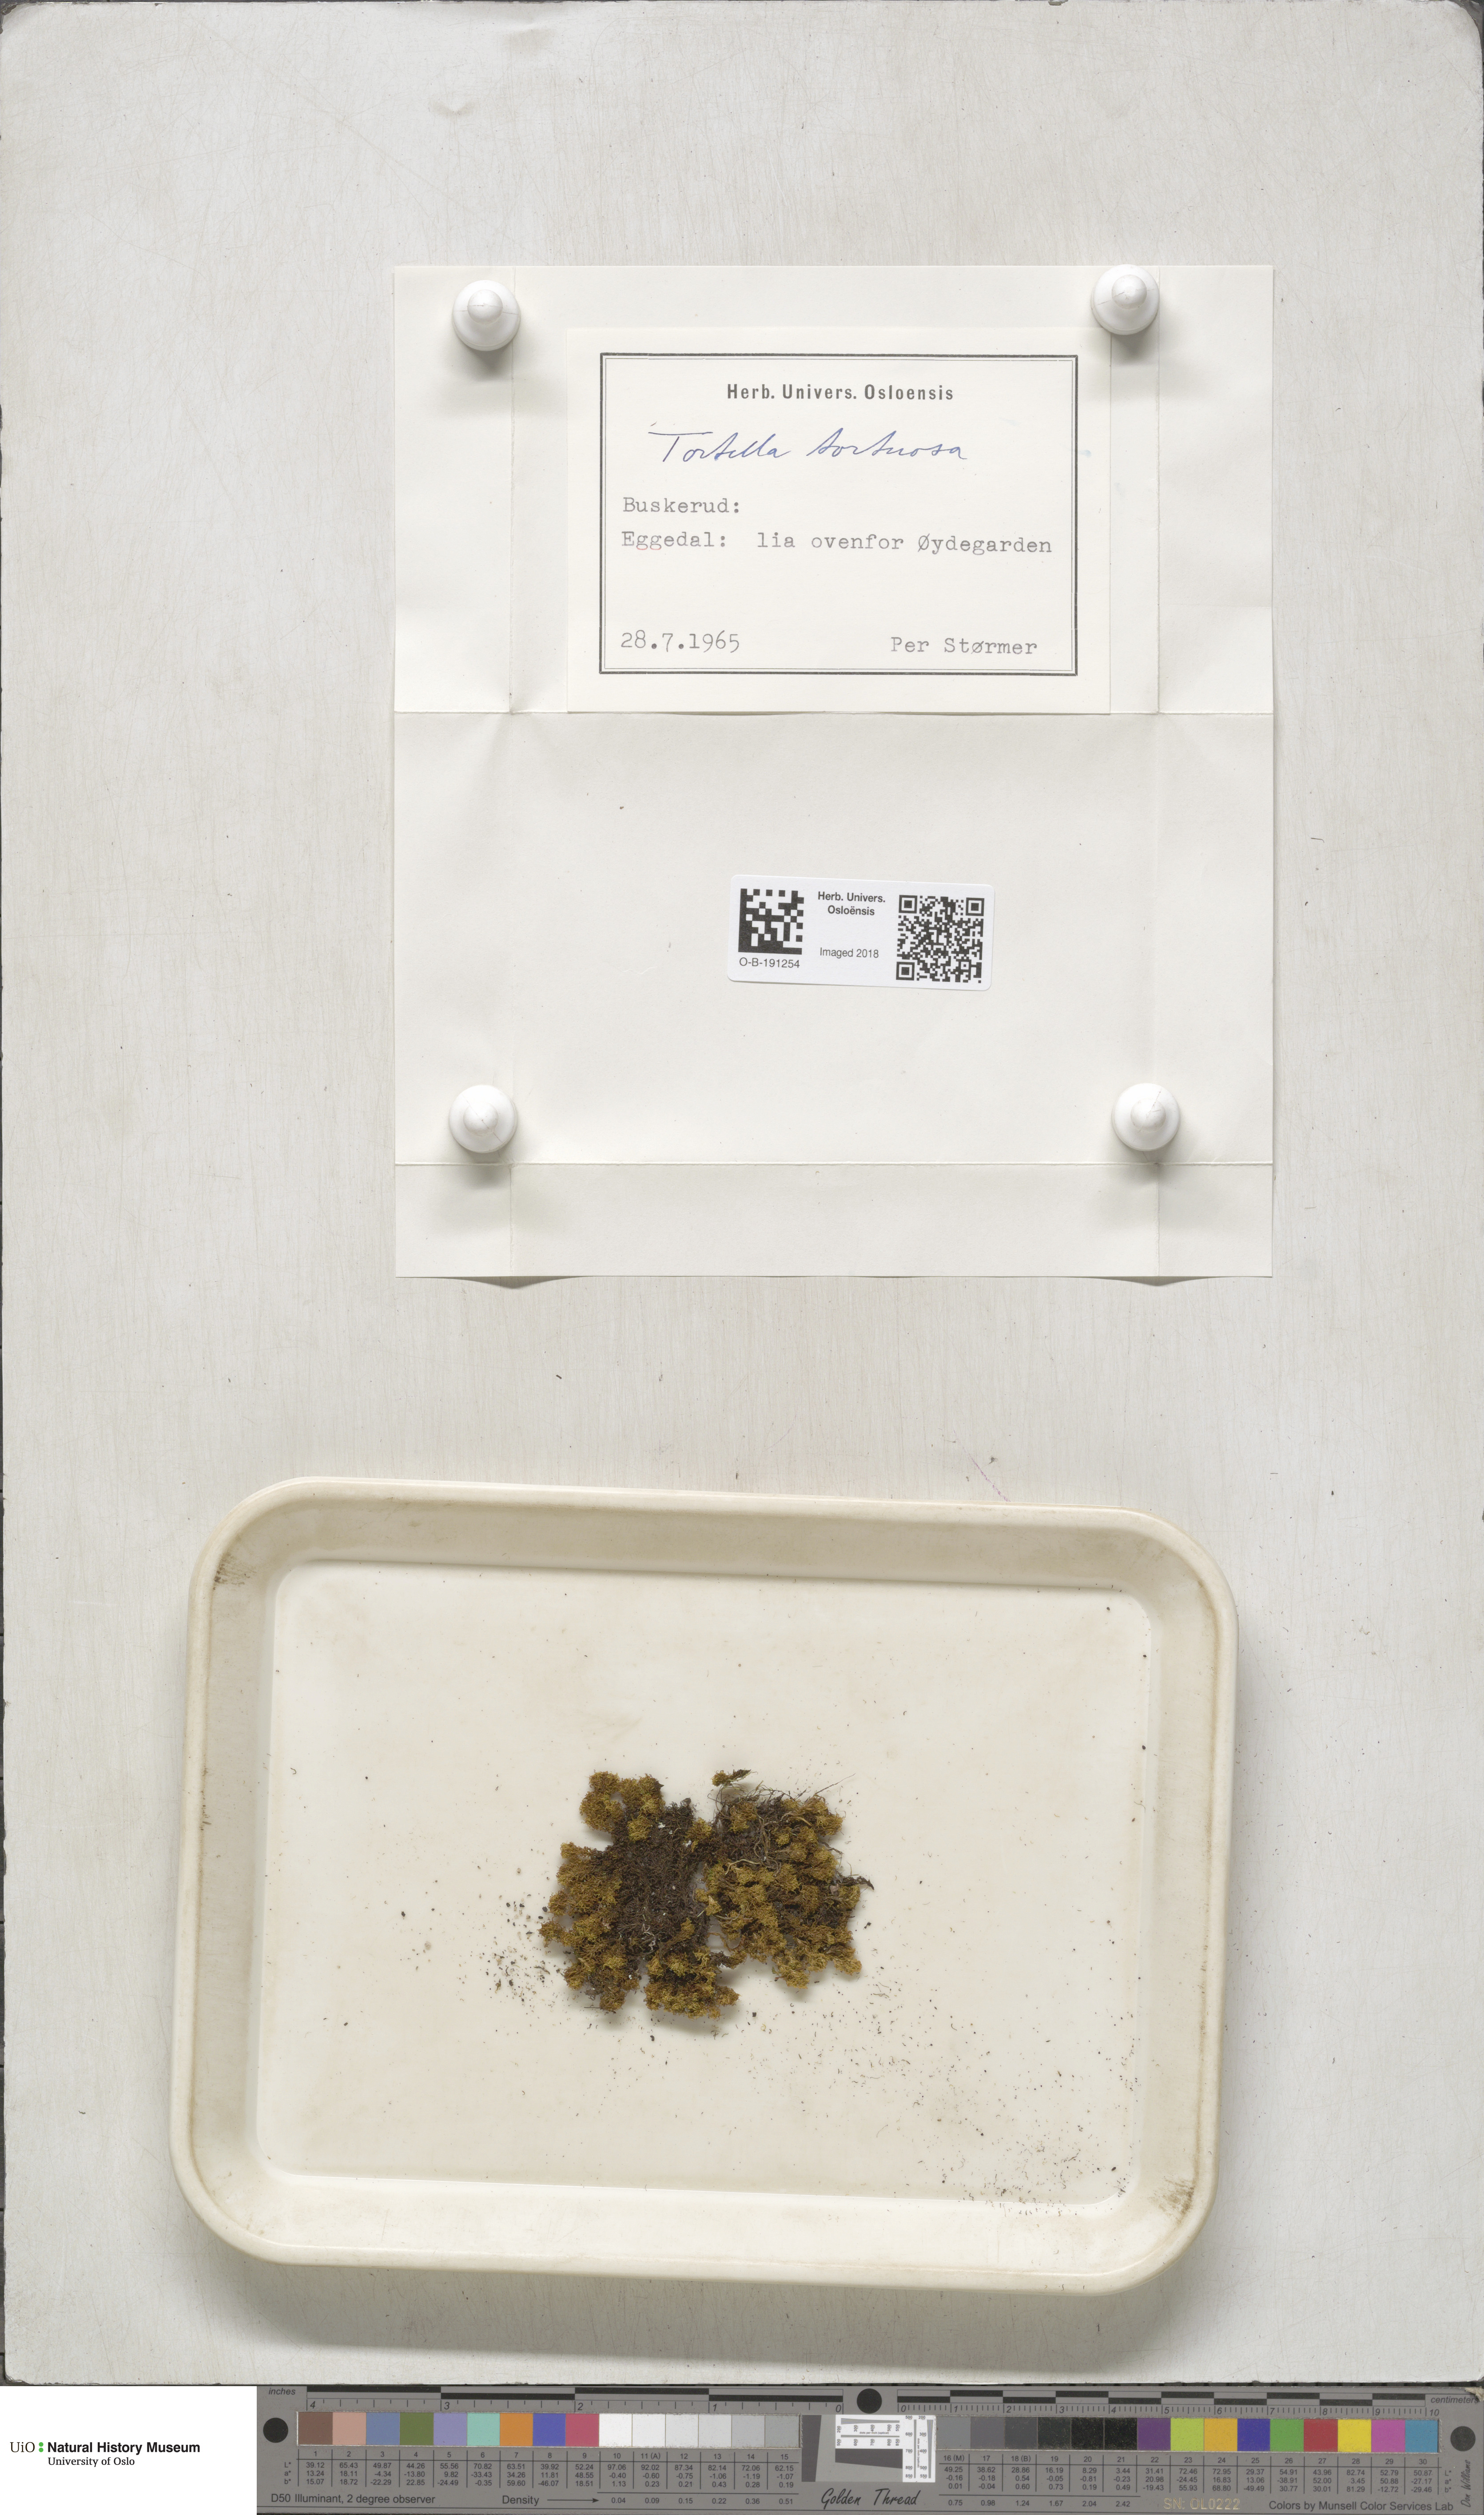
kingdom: Plantae
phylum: Bryophyta
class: Bryopsida
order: Pottiales
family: Pottiaceae
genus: Tortella
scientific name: Tortella tortuosa
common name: Frizzled crisp moss
